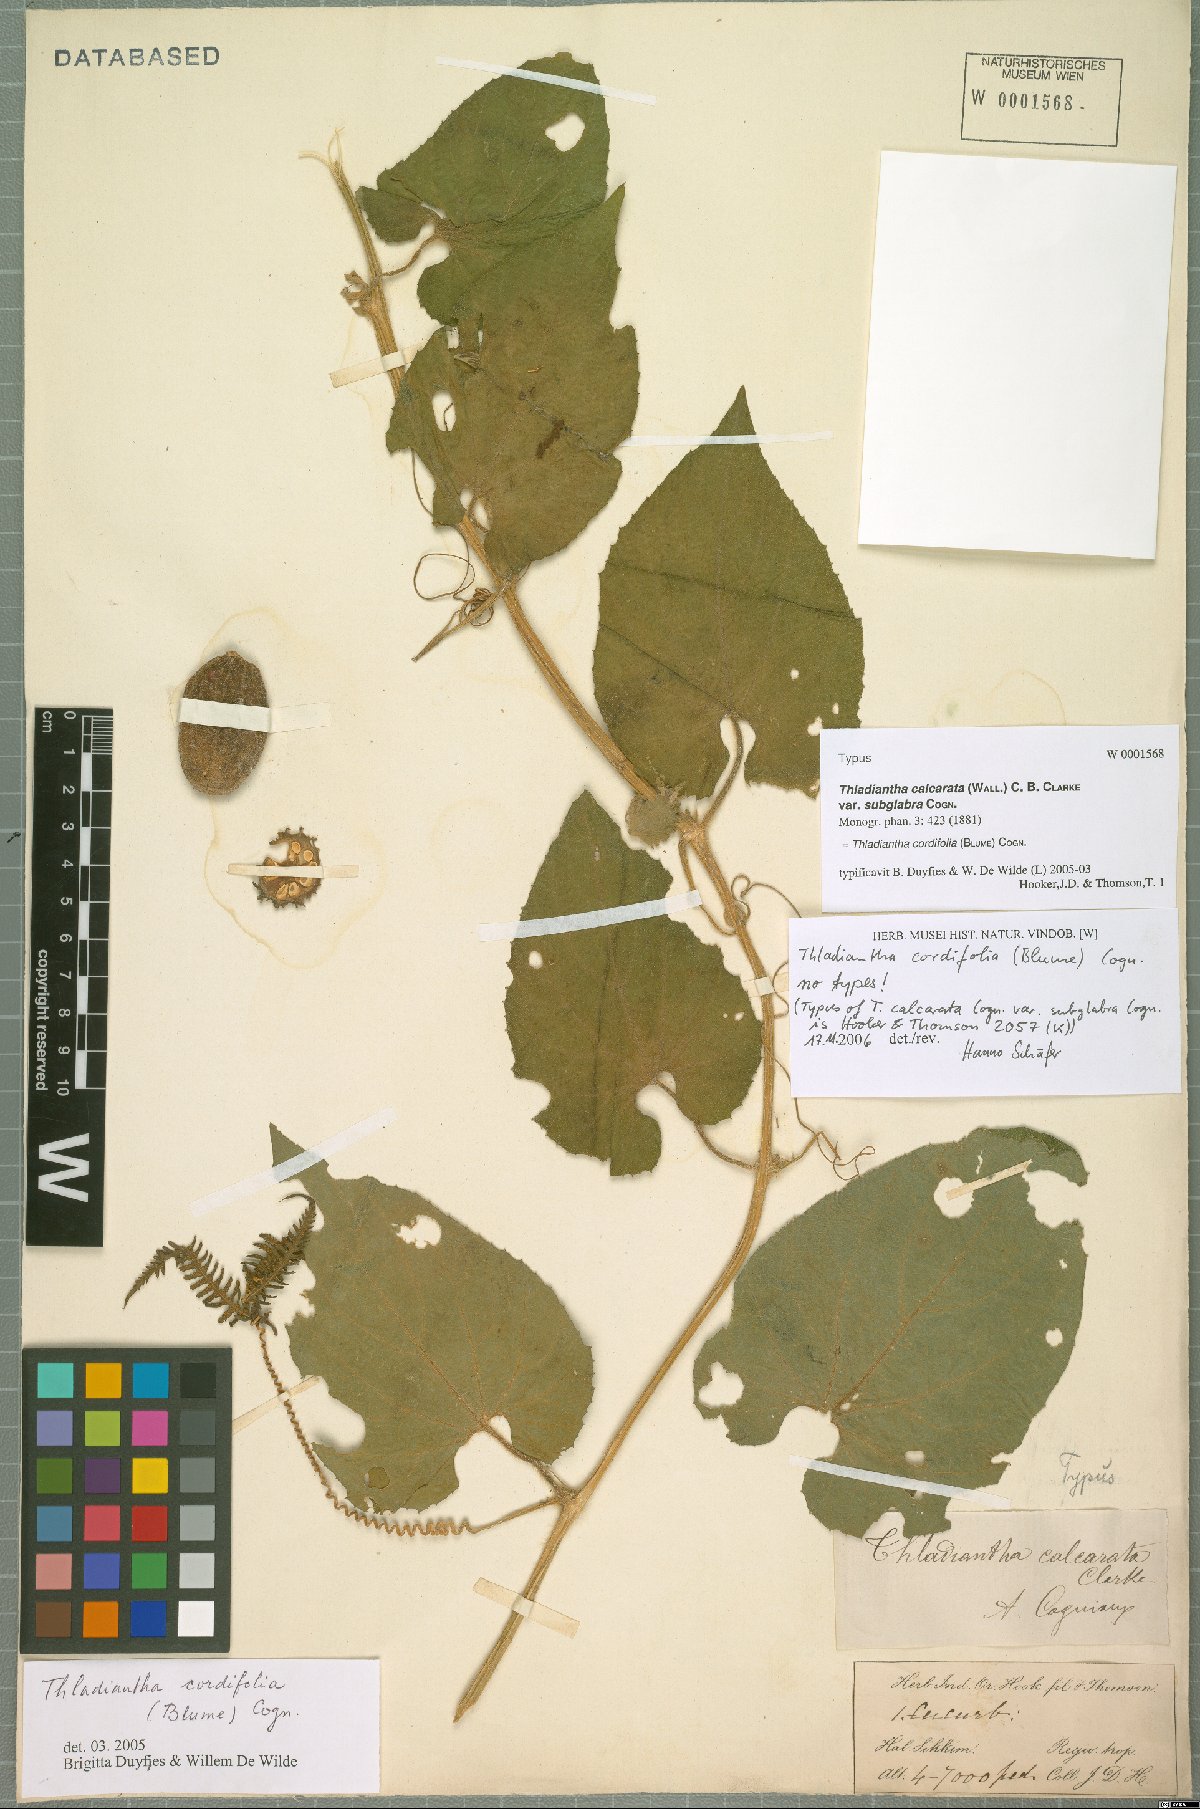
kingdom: Plantae
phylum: Tracheophyta
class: Magnoliopsida
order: Cucurbitales
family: Cucurbitaceae
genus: Thladiantha
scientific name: Thladiantha cordifolia
